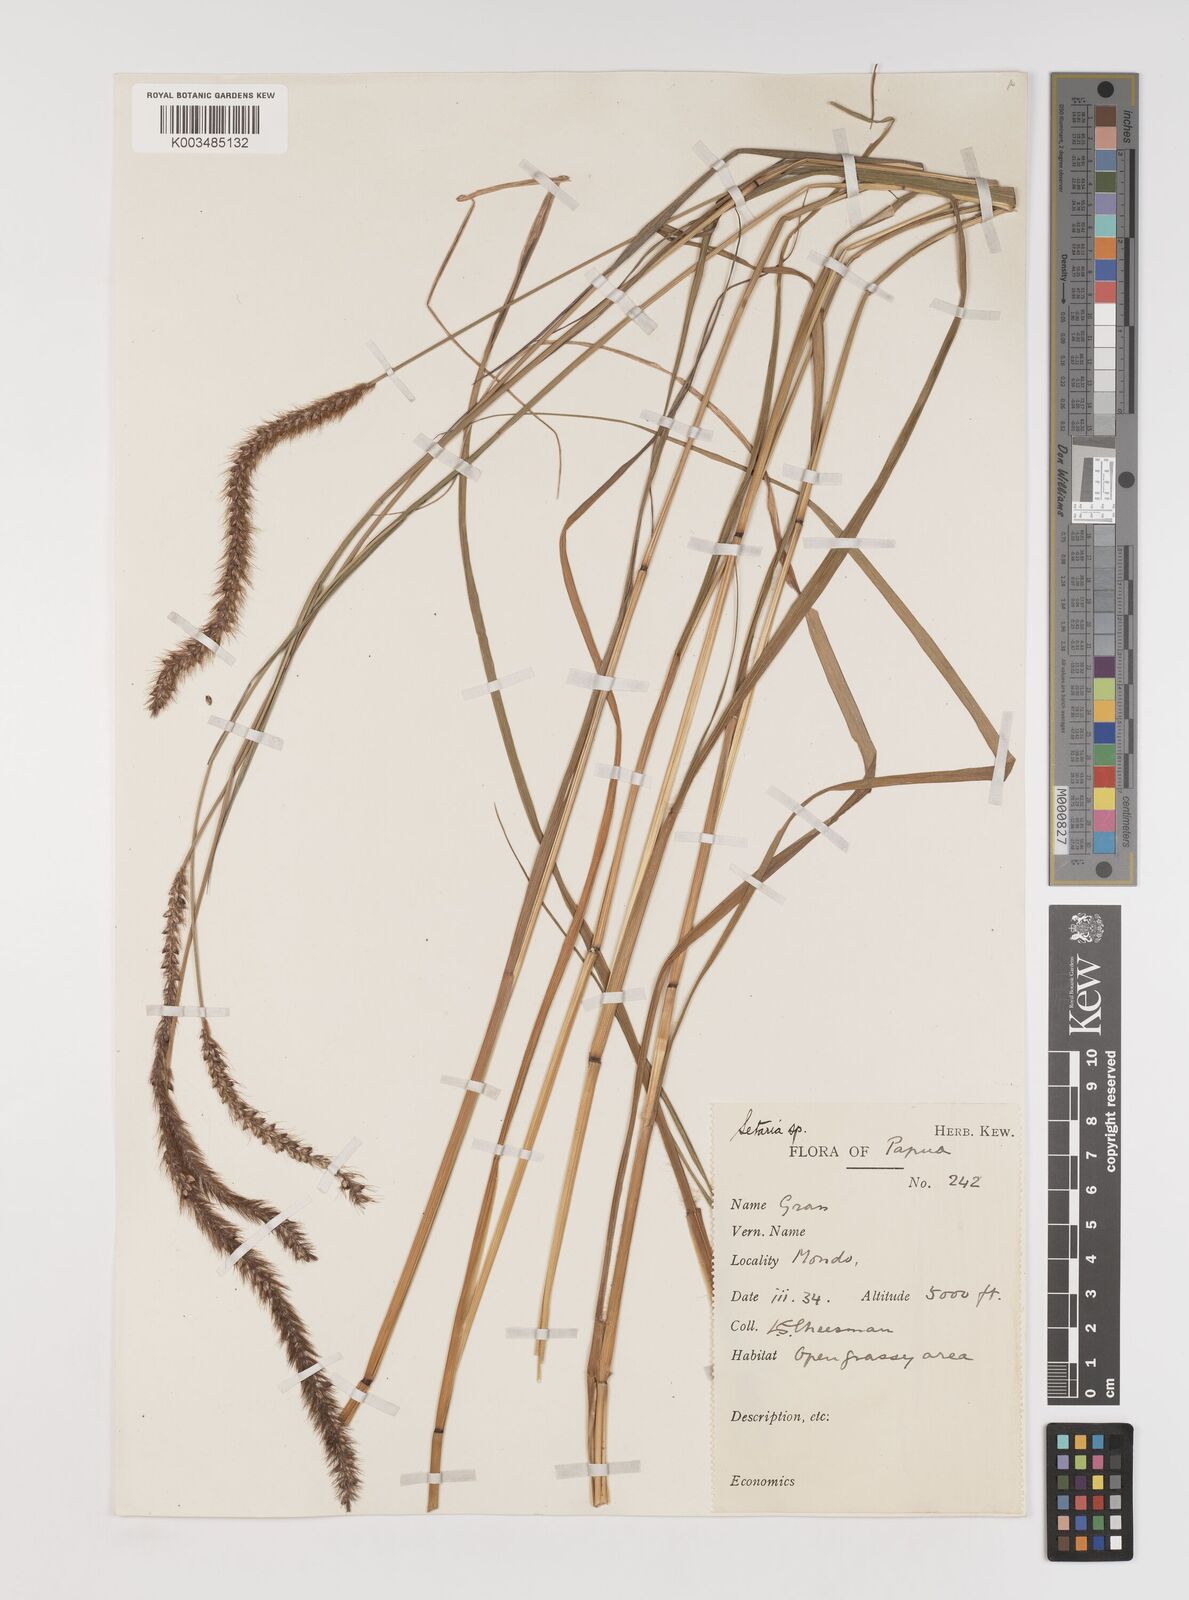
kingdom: Plantae
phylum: Tracheophyta
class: Liliopsida
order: Poales
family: Poaceae
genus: Setaria
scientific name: Setaria
